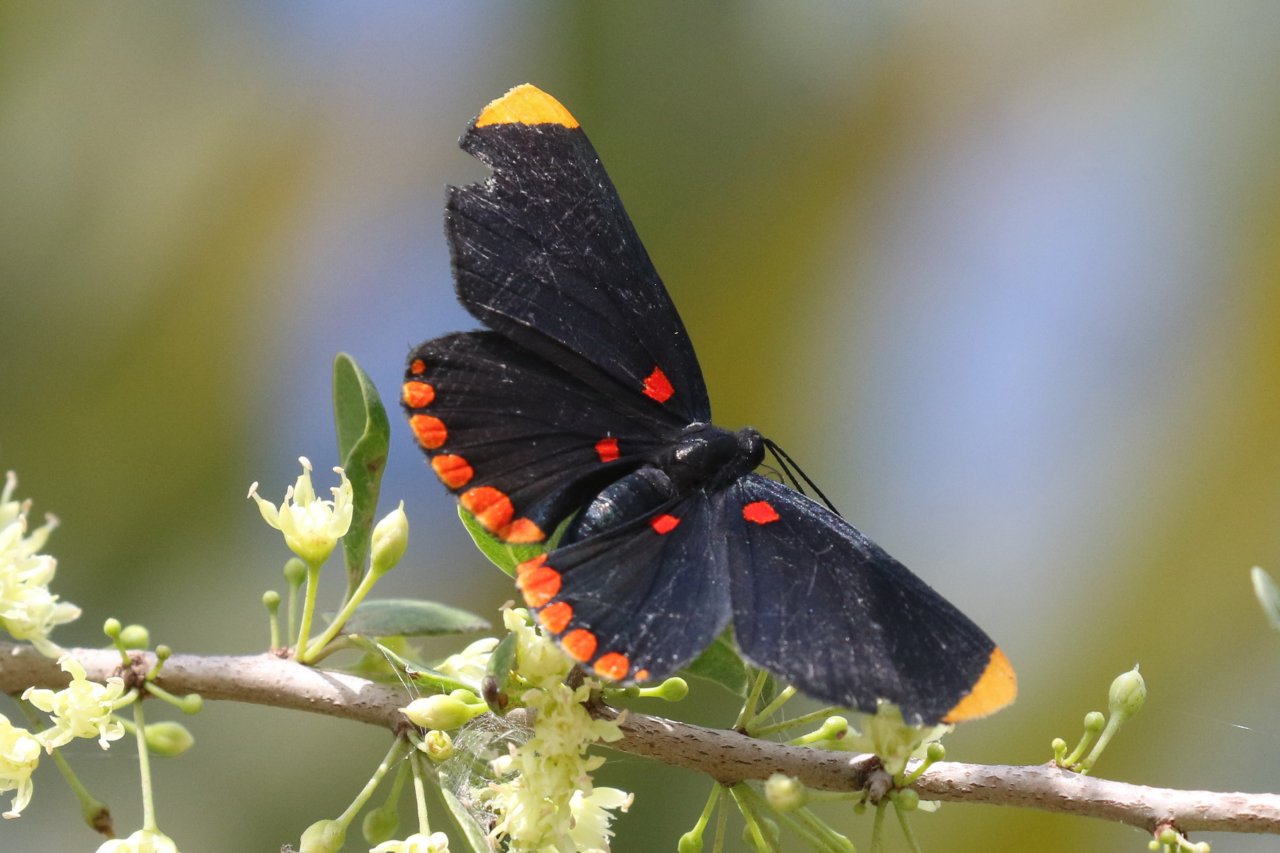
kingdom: Animalia
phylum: Arthropoda
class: Insecta
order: Lepidoptera
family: Lycaenidae
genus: Melanis
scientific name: Melanis pixe
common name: Red-bordered Pixie
